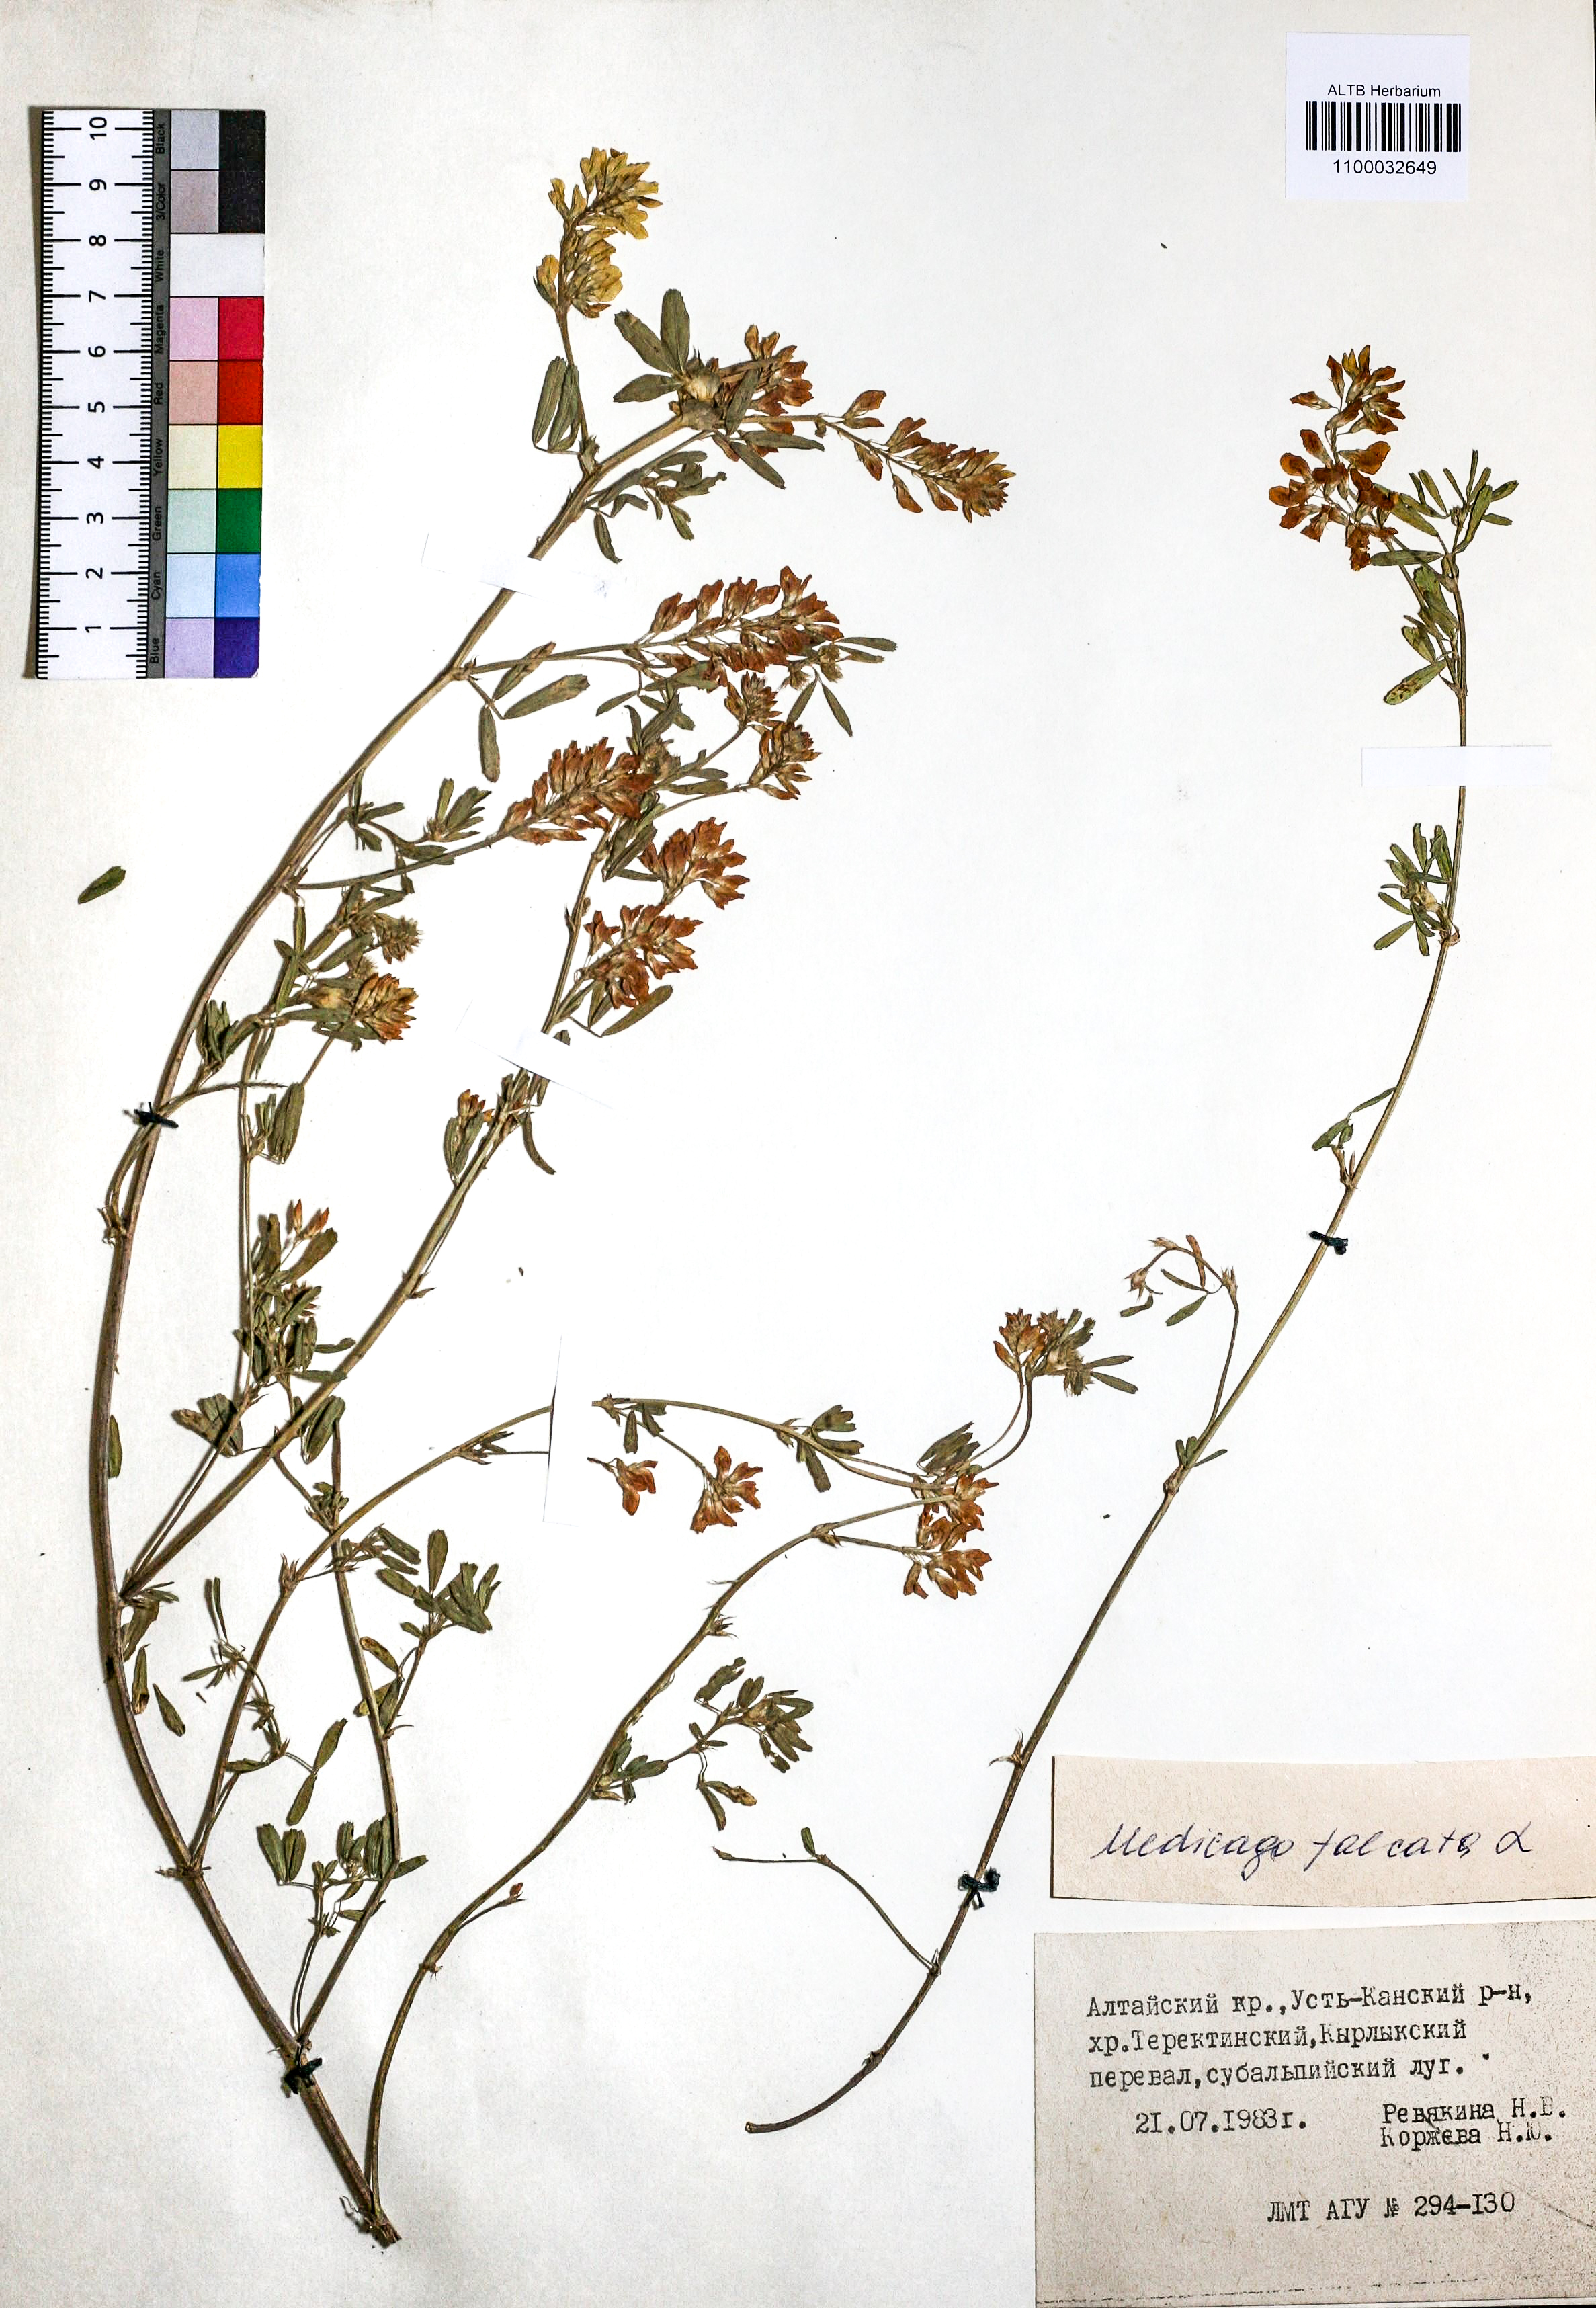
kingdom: Plantae
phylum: Tracheophyta
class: Magnoliopsida
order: Fabales
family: Fabaceae
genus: Medicago
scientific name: Medicago falcata
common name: Sickle medick
